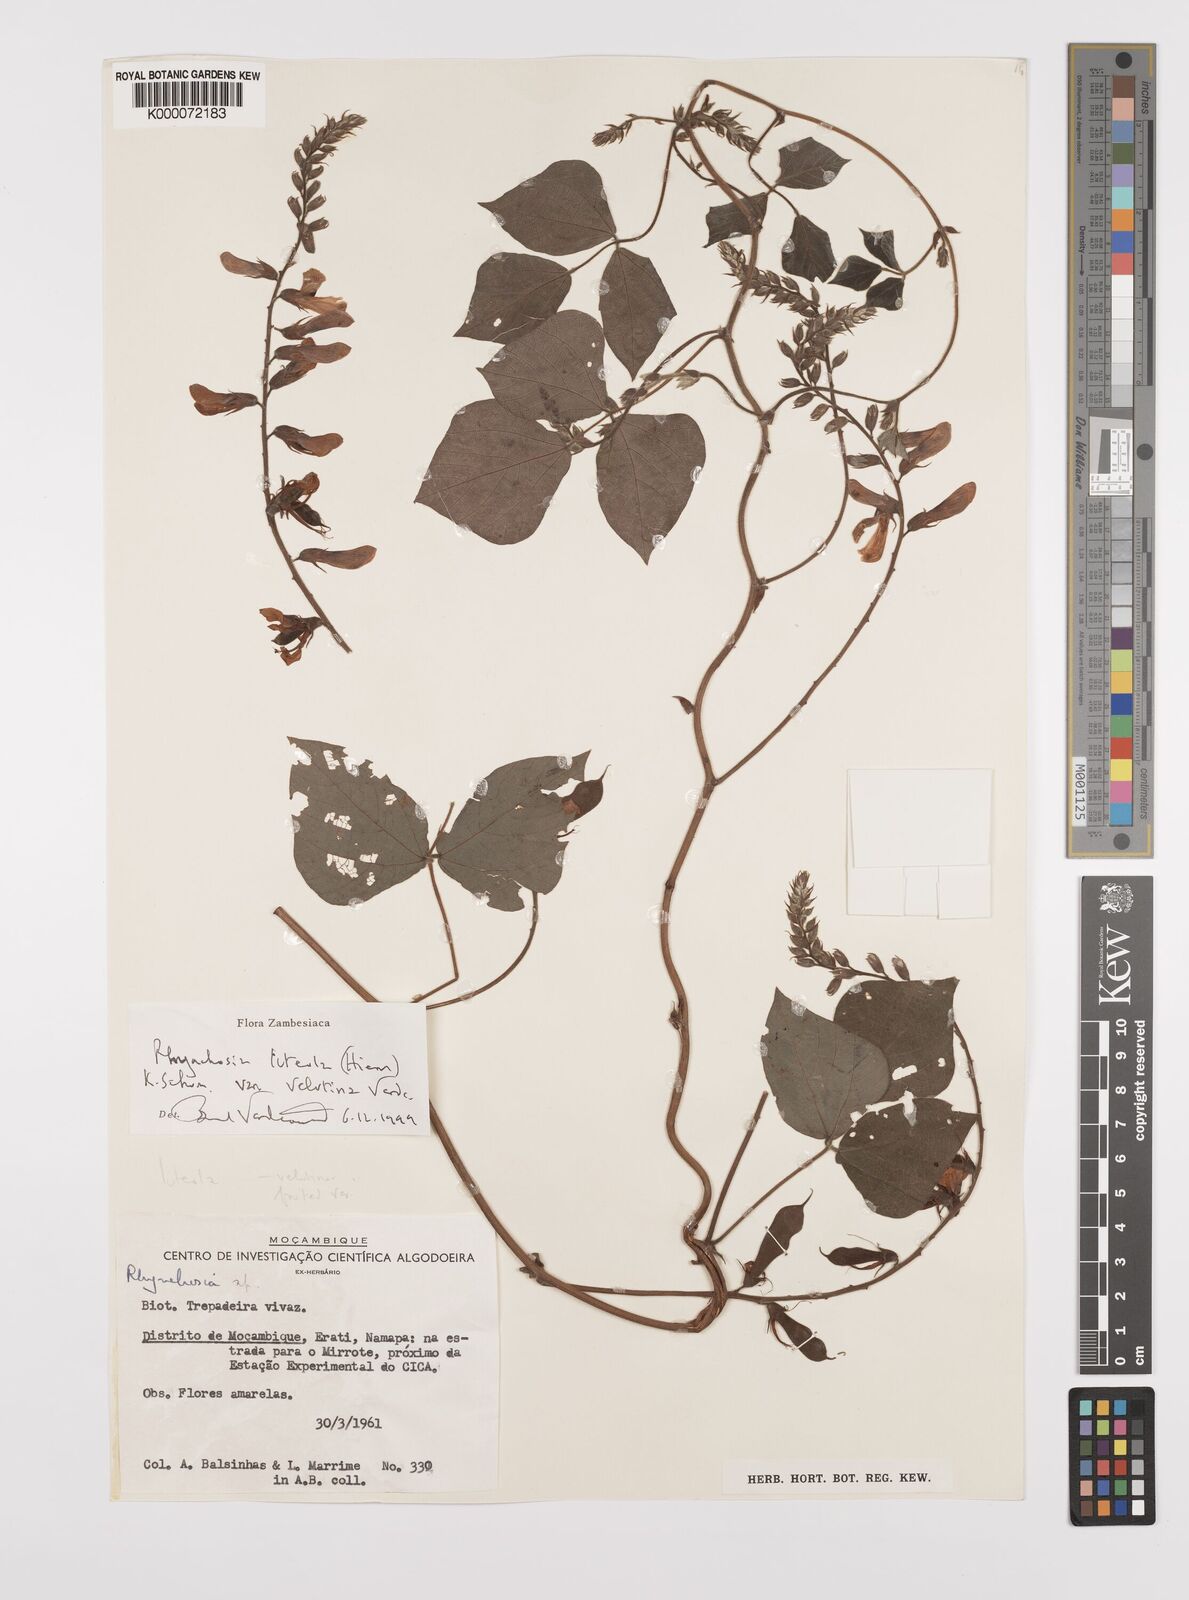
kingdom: Plantae
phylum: Tracheophyta
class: Magnoliopsida
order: Fabales
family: Fabaceae
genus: Rhynchosia
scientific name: Rhynchosia luteola
